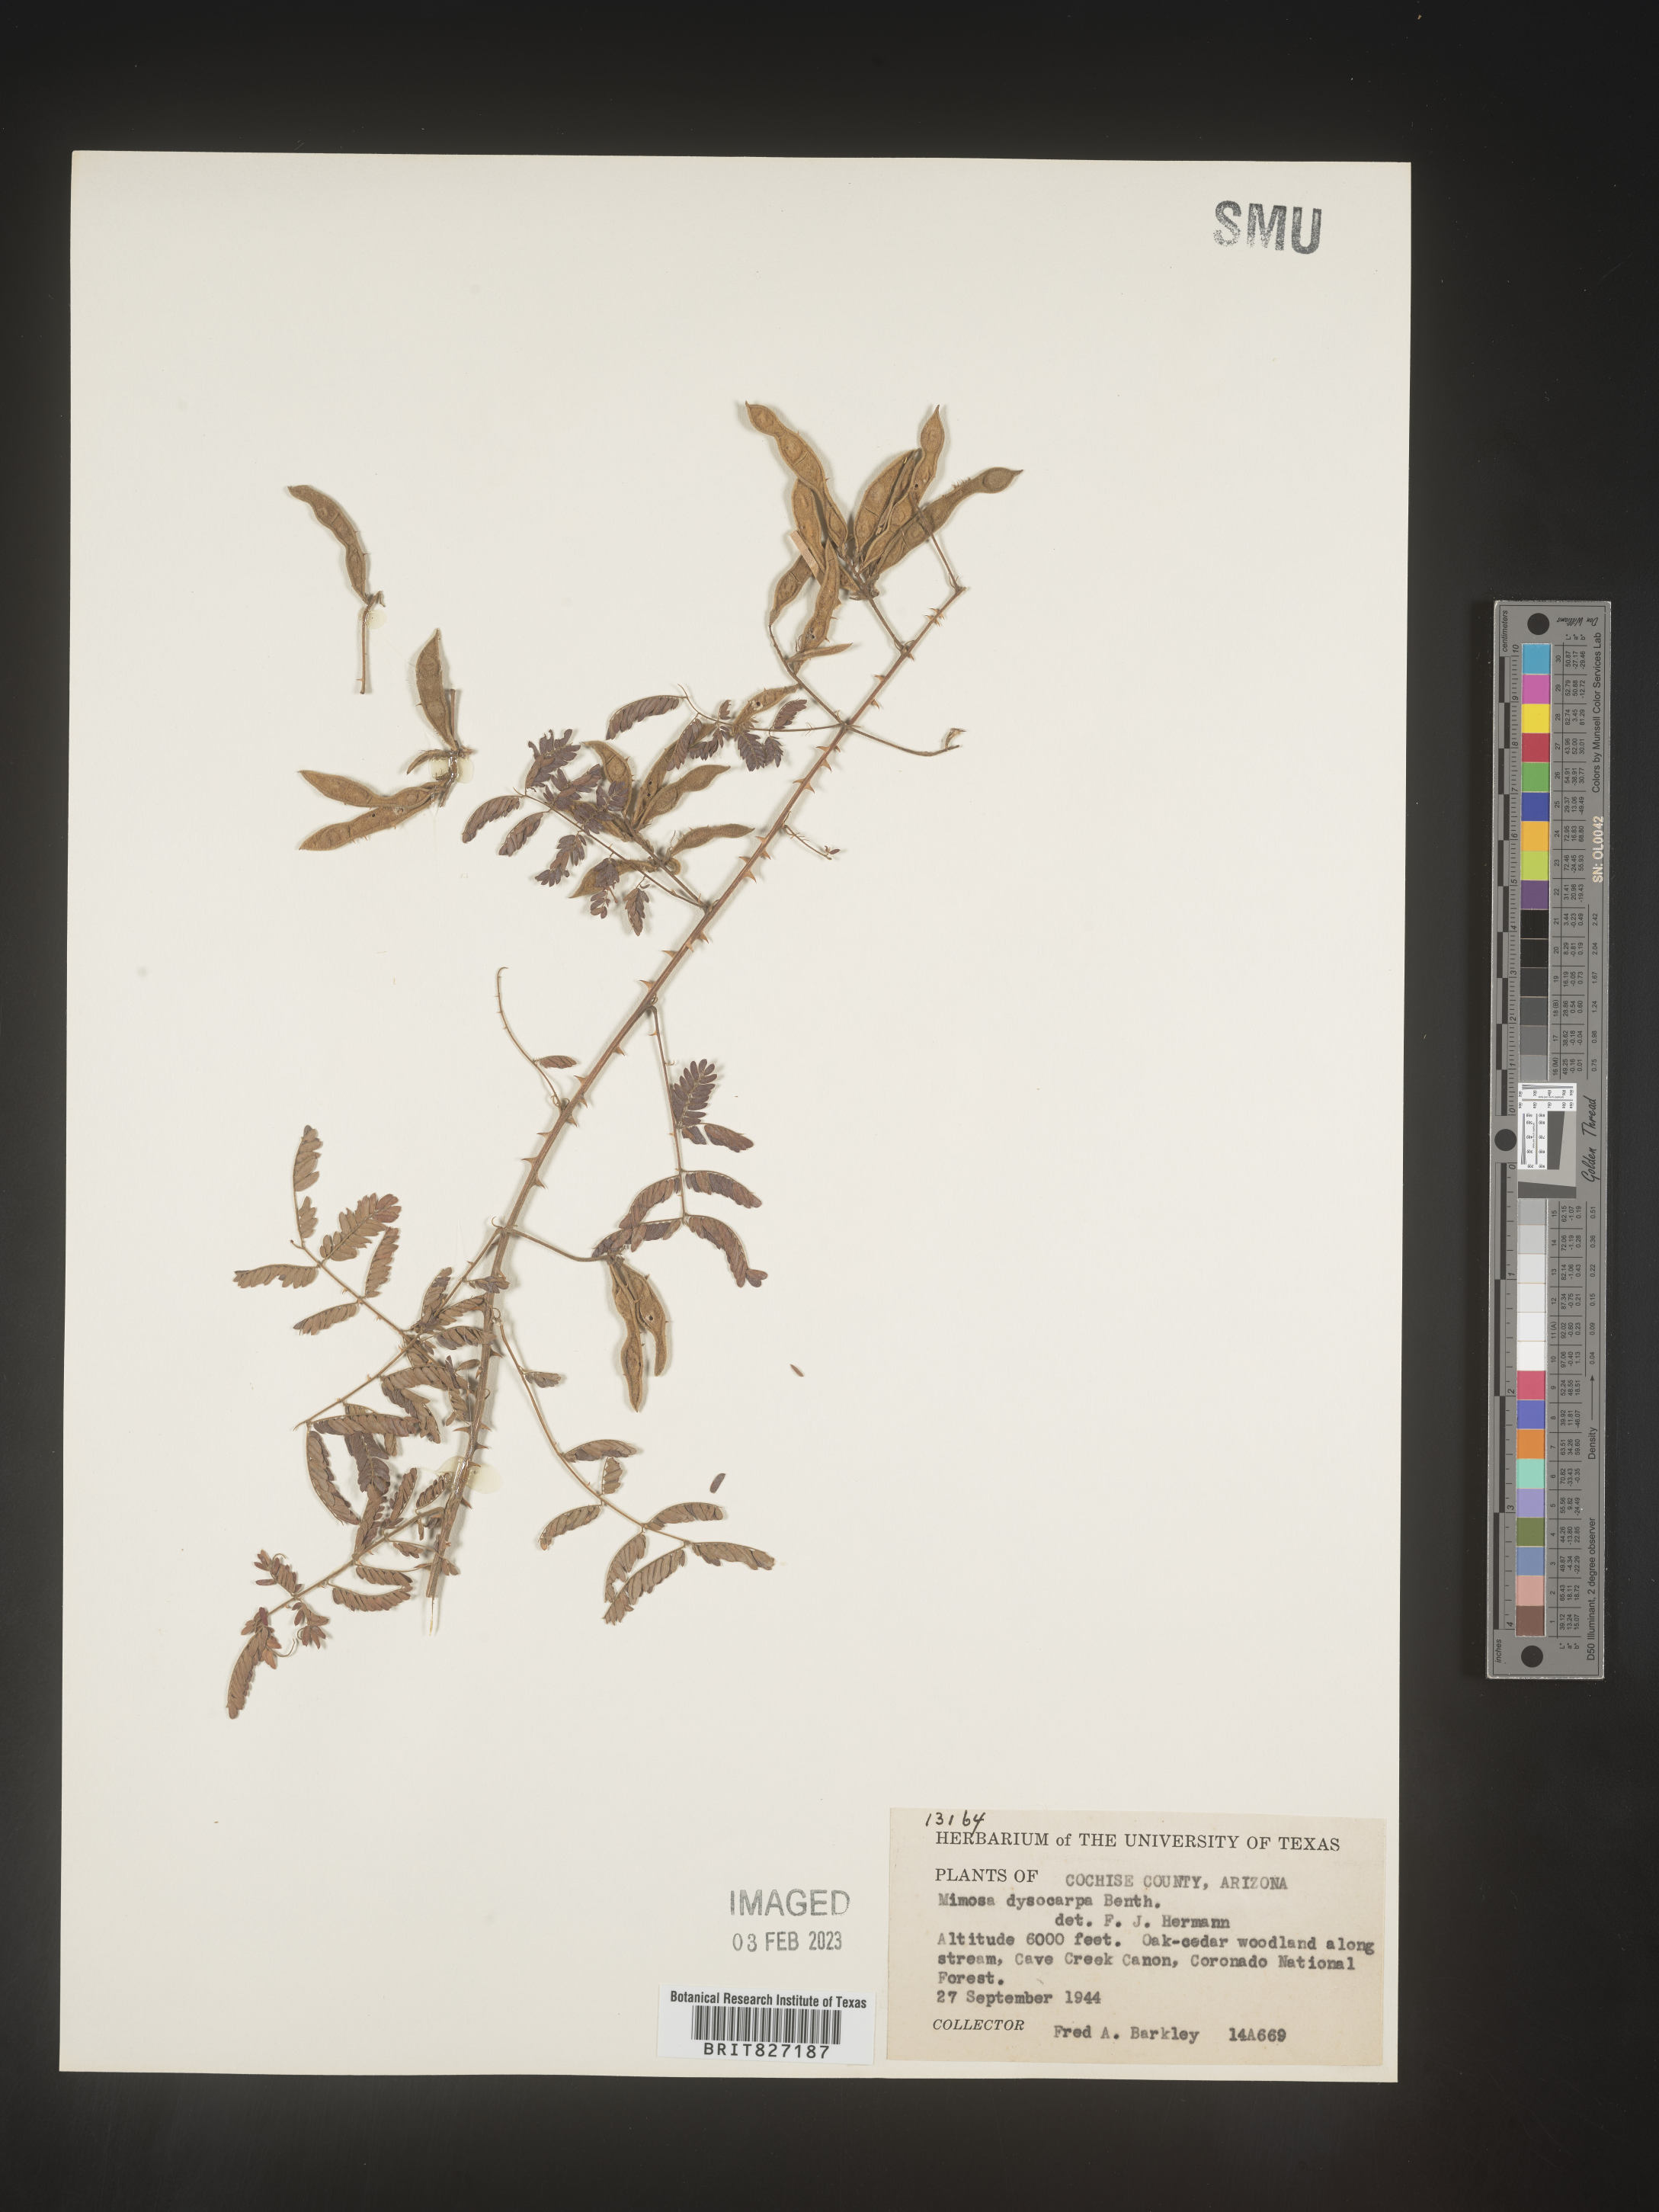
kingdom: Plantae
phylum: Tracheophyta
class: Magnoliopsida
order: Fabales
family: Fabaceae
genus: Mimosa
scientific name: Mimosa dysocarpa
